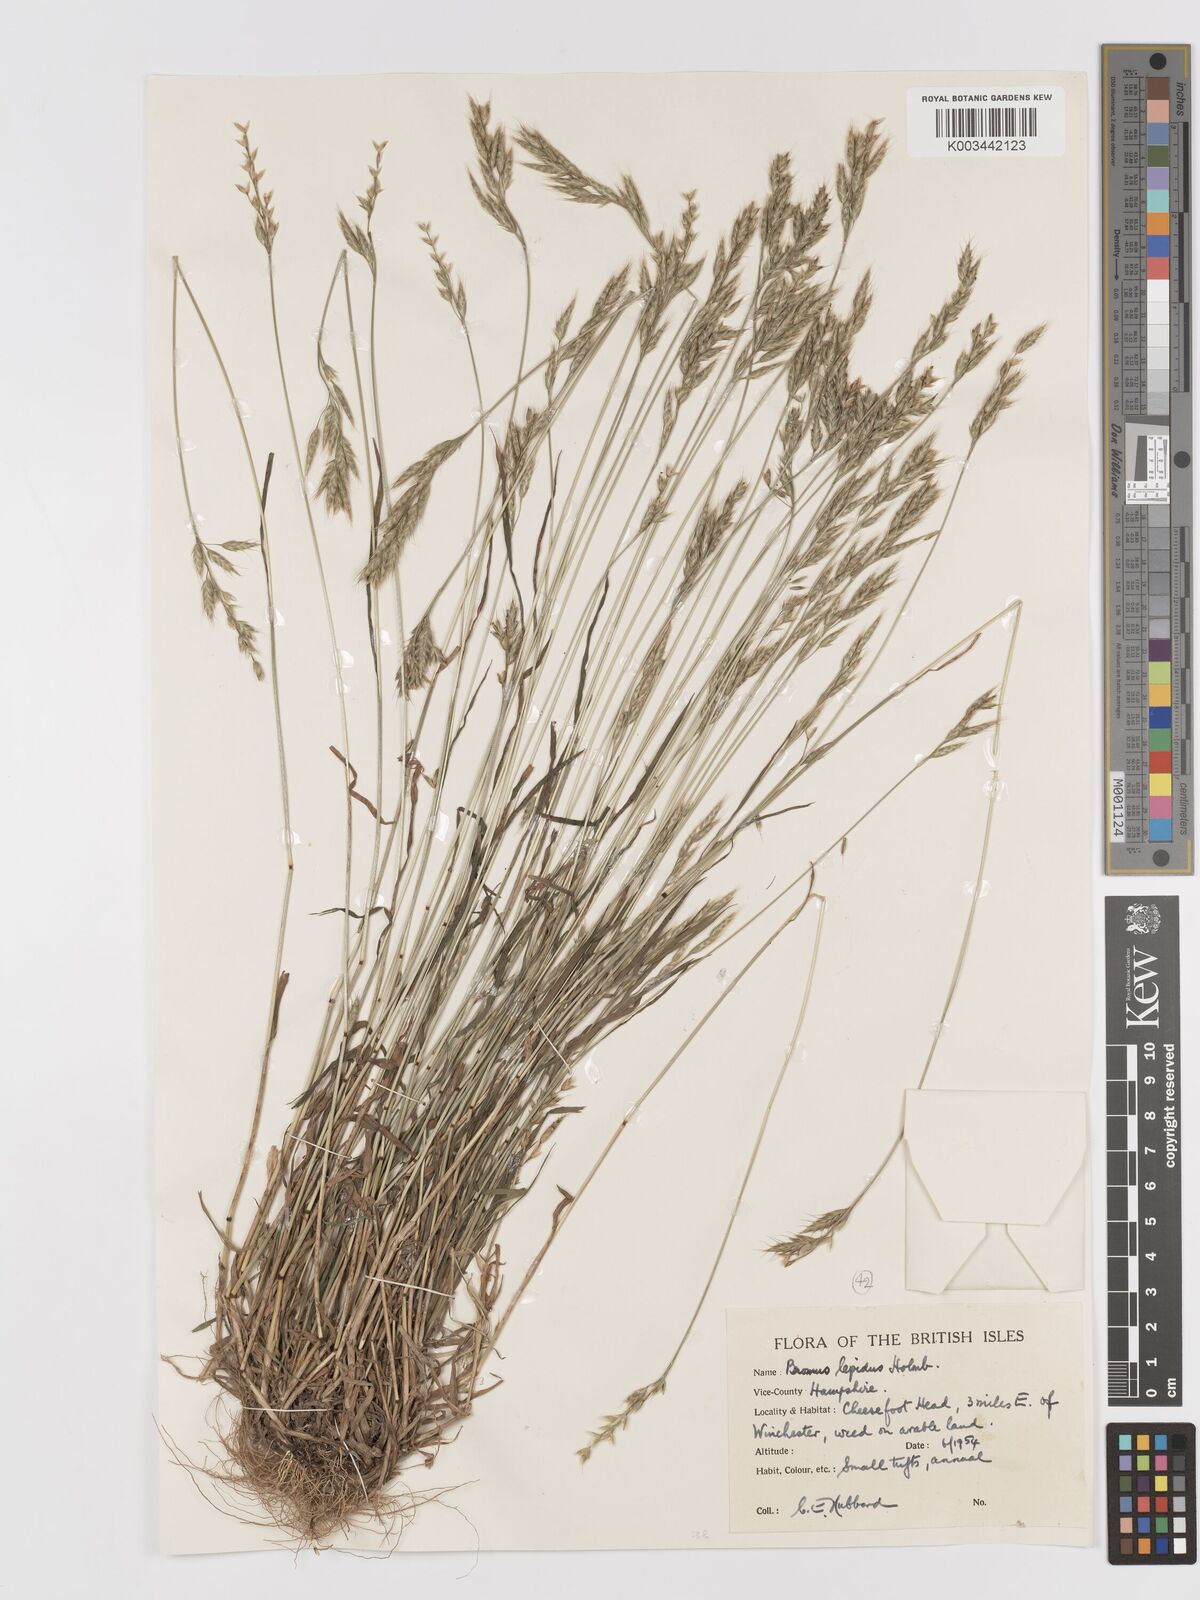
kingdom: Plantae
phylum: Tracheophyta
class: Liliopsida
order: Poales
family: Poaceae
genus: Bromus
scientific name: Bromus lepidus
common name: Slender soft-brome
